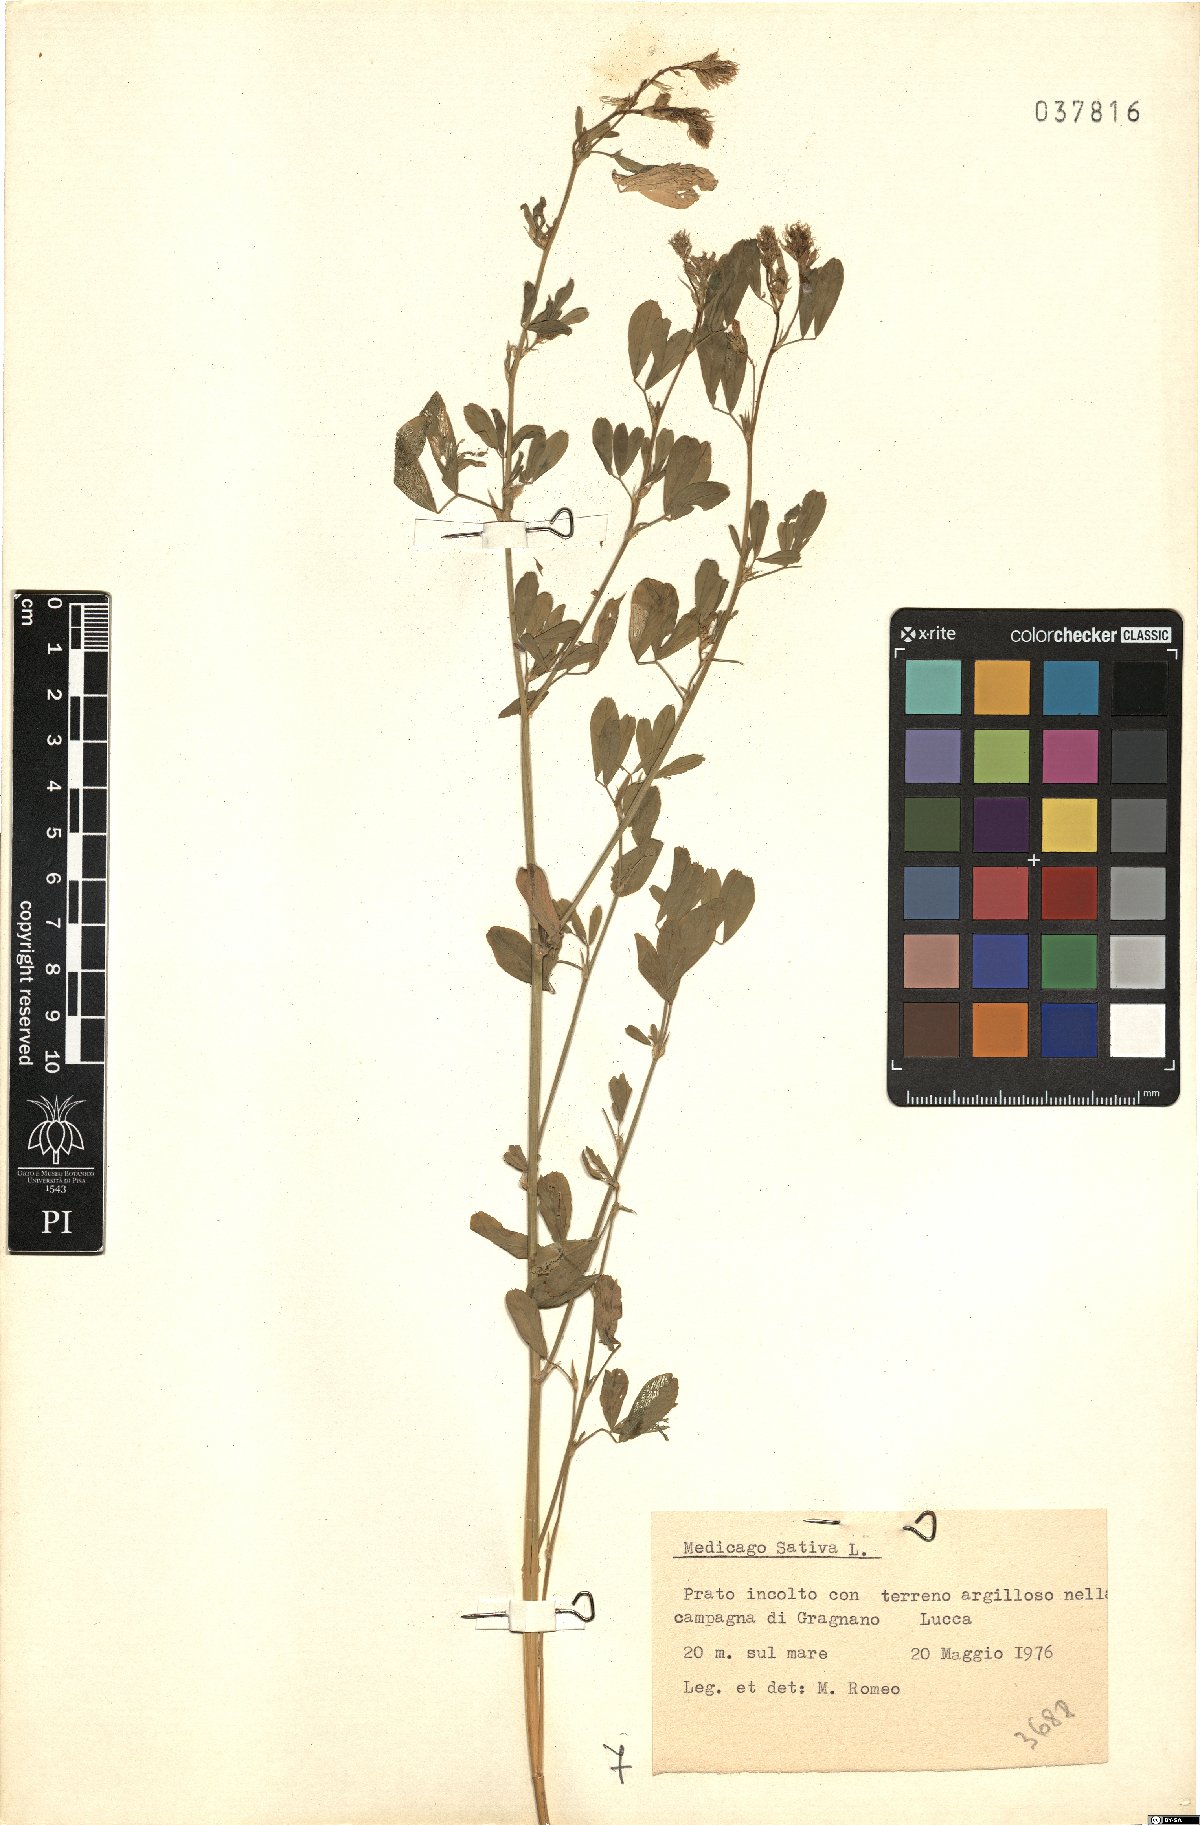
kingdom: Plantae
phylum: Tracheophyta
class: Magnoliopsida
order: Fabales
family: Fabaceae
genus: Medicago
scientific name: Medicago sativa
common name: Alfalfa
